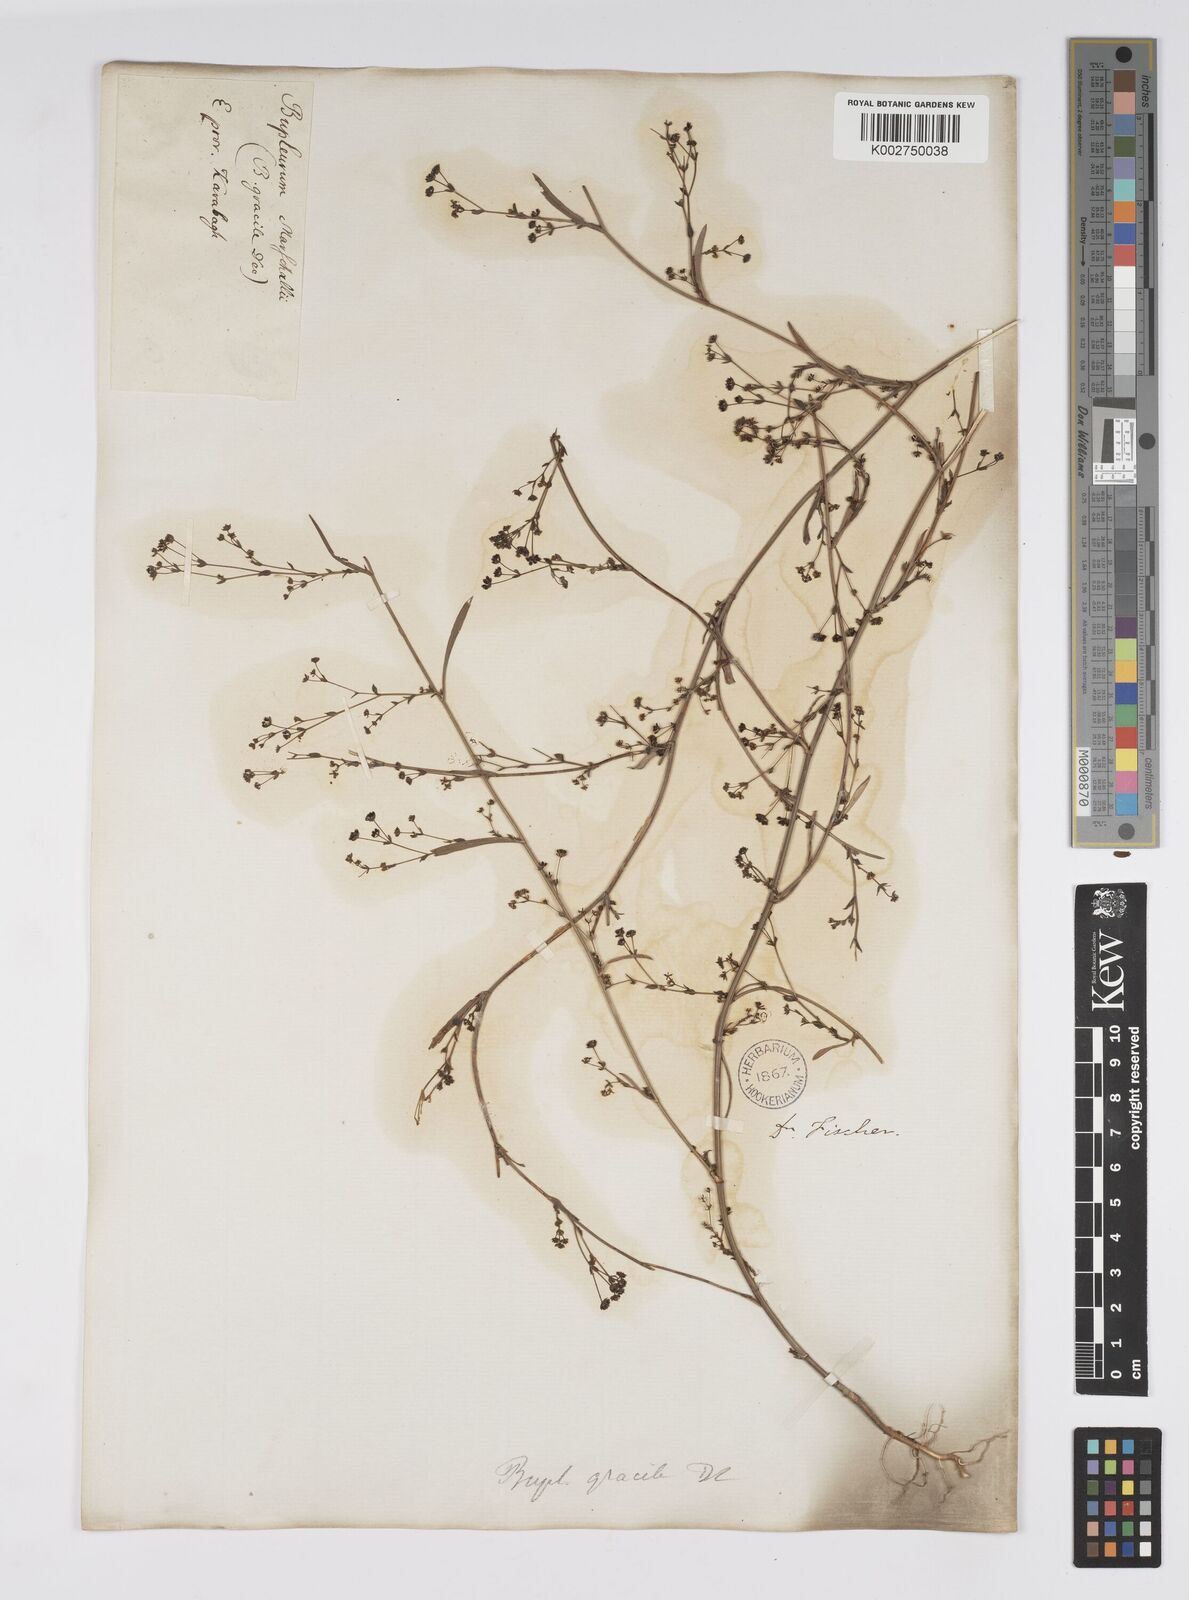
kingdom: Plantae
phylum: Tracheophyta
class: Magnoliopsida
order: Apiales
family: Apiaceae
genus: Bupleurum
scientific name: Bupleurum marschallianum
